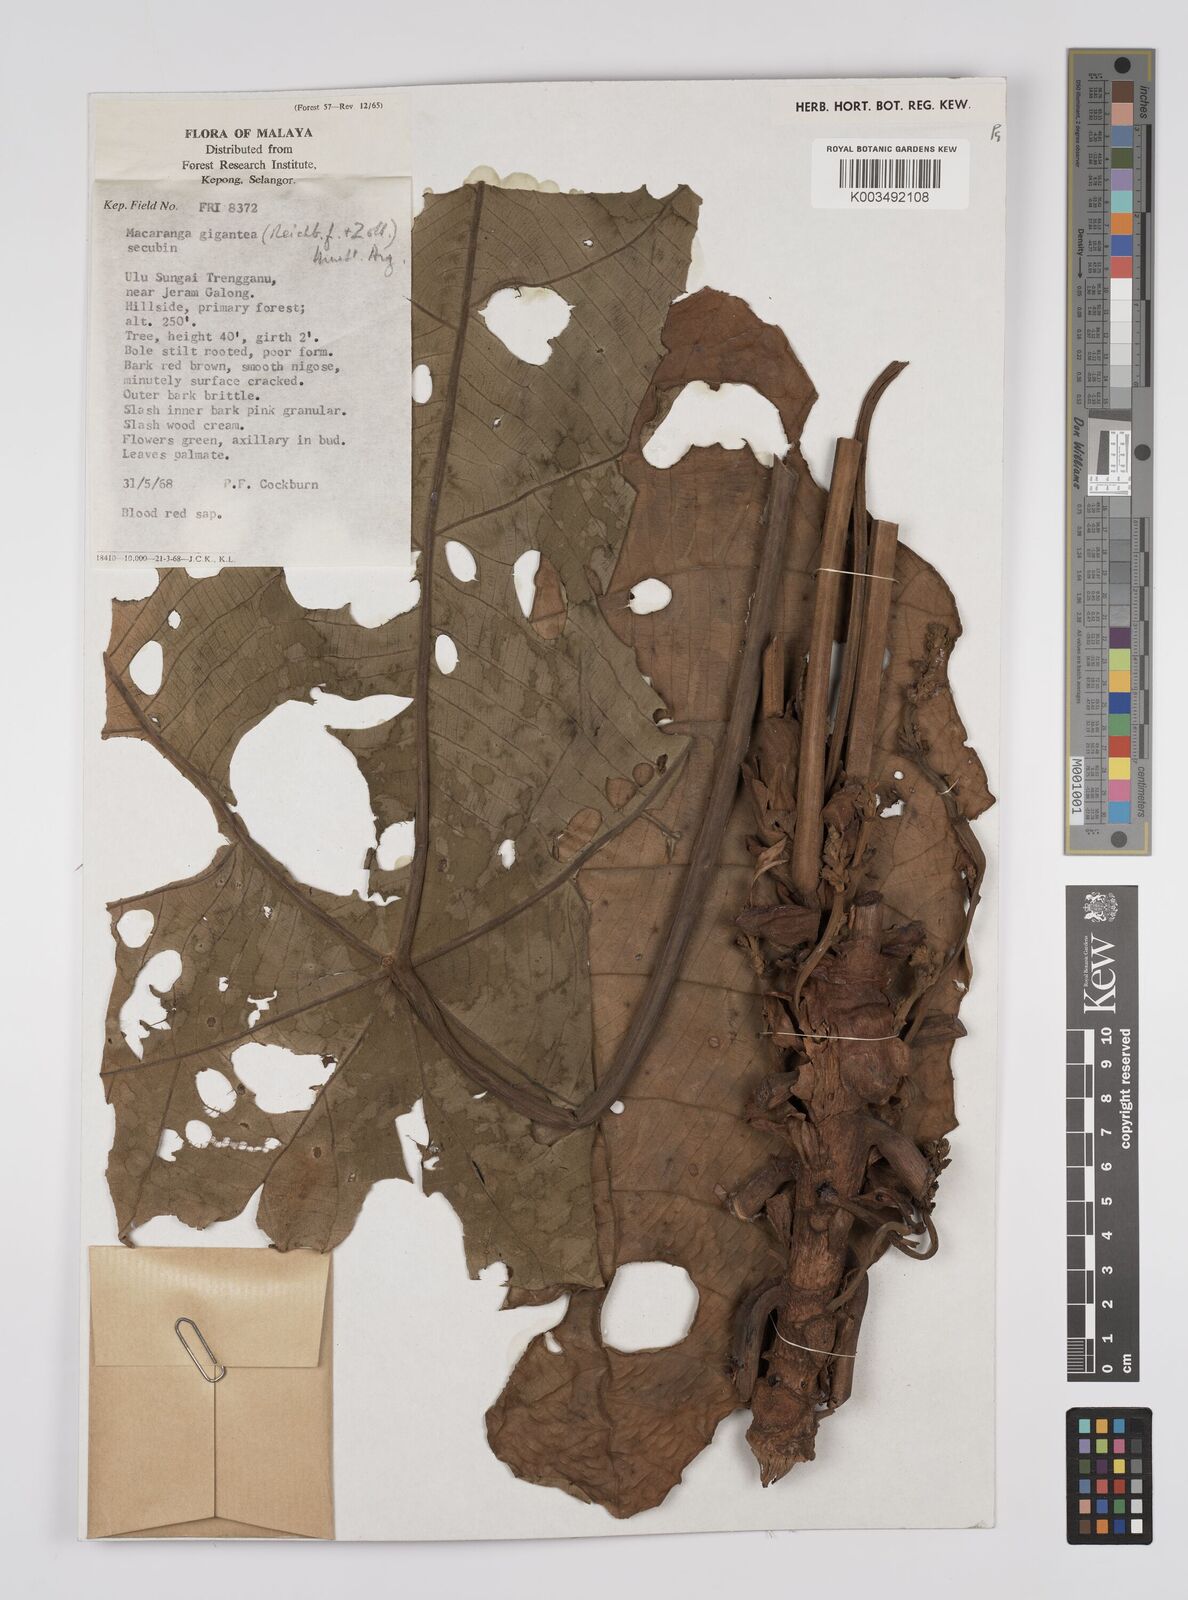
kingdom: Plantae
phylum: Tracheophyta
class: Magnoliopsida
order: Malpighiales
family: Euphorbiaceae
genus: Macaranga
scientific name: Macaranga gigantea
